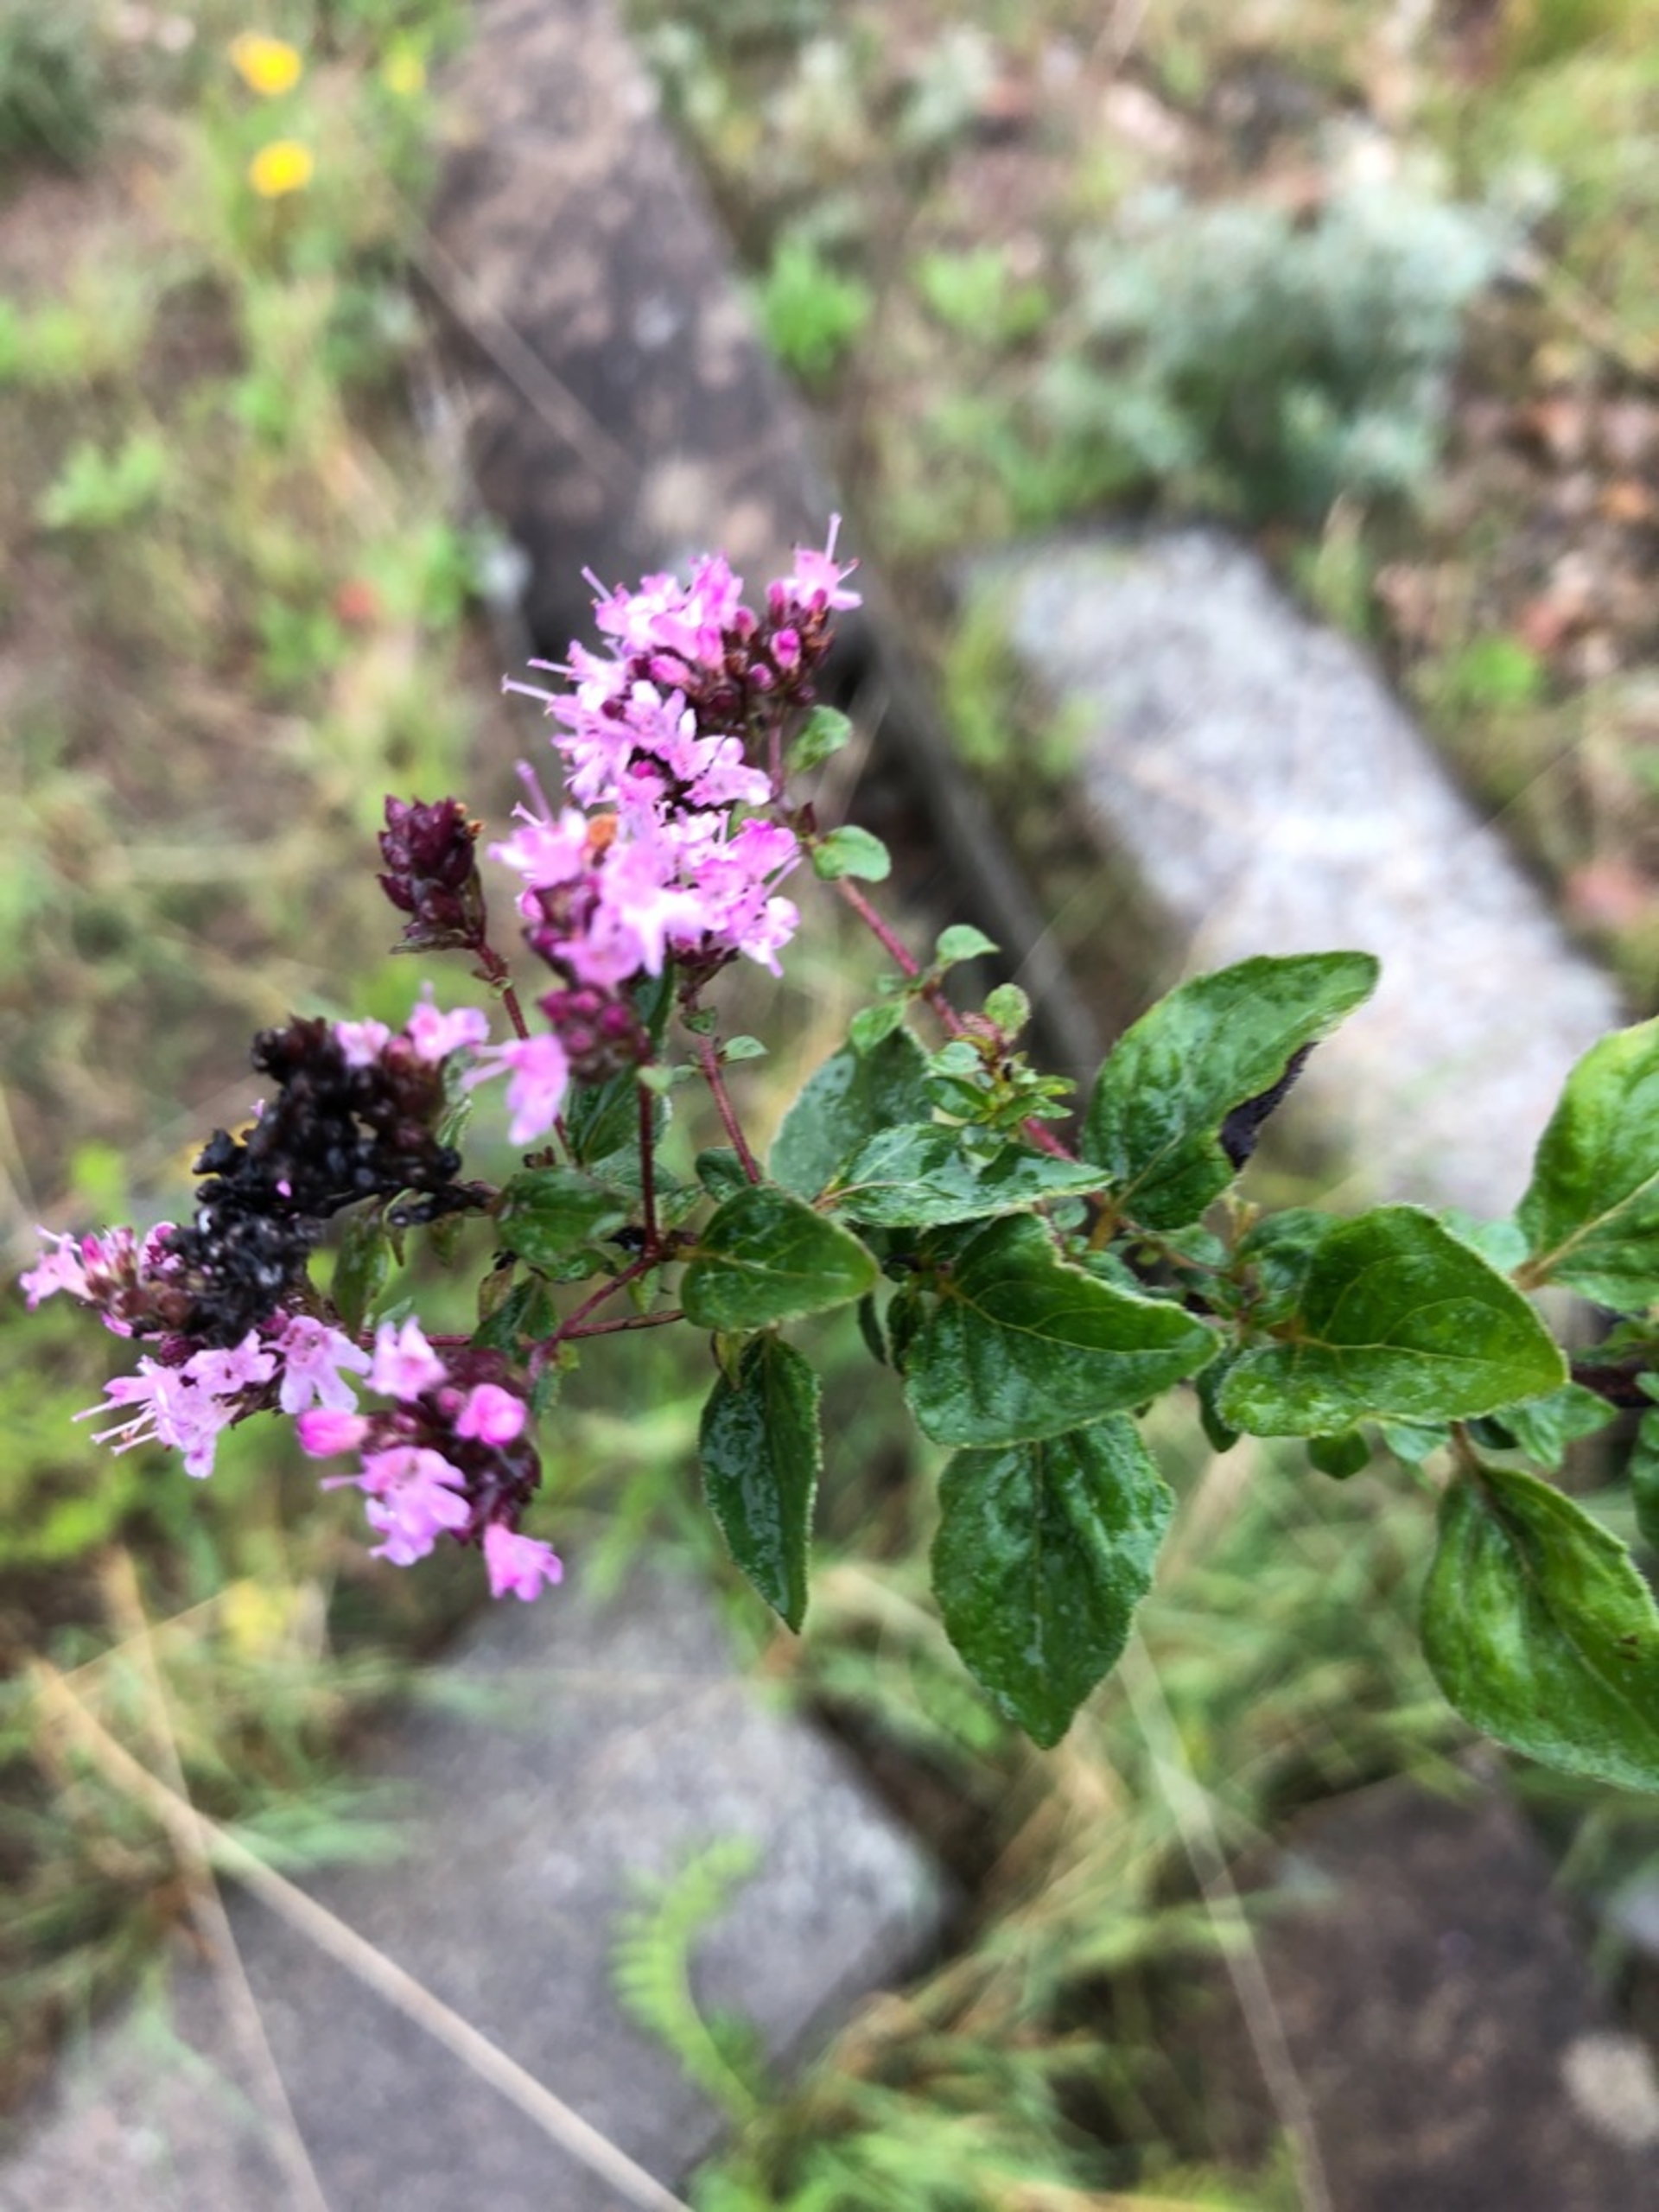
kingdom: Plantae
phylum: Tracheophyta
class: Magnoliopsida
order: Lamiales
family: Lamiaceae
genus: Origanum
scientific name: Origanum vulgare
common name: Merian
